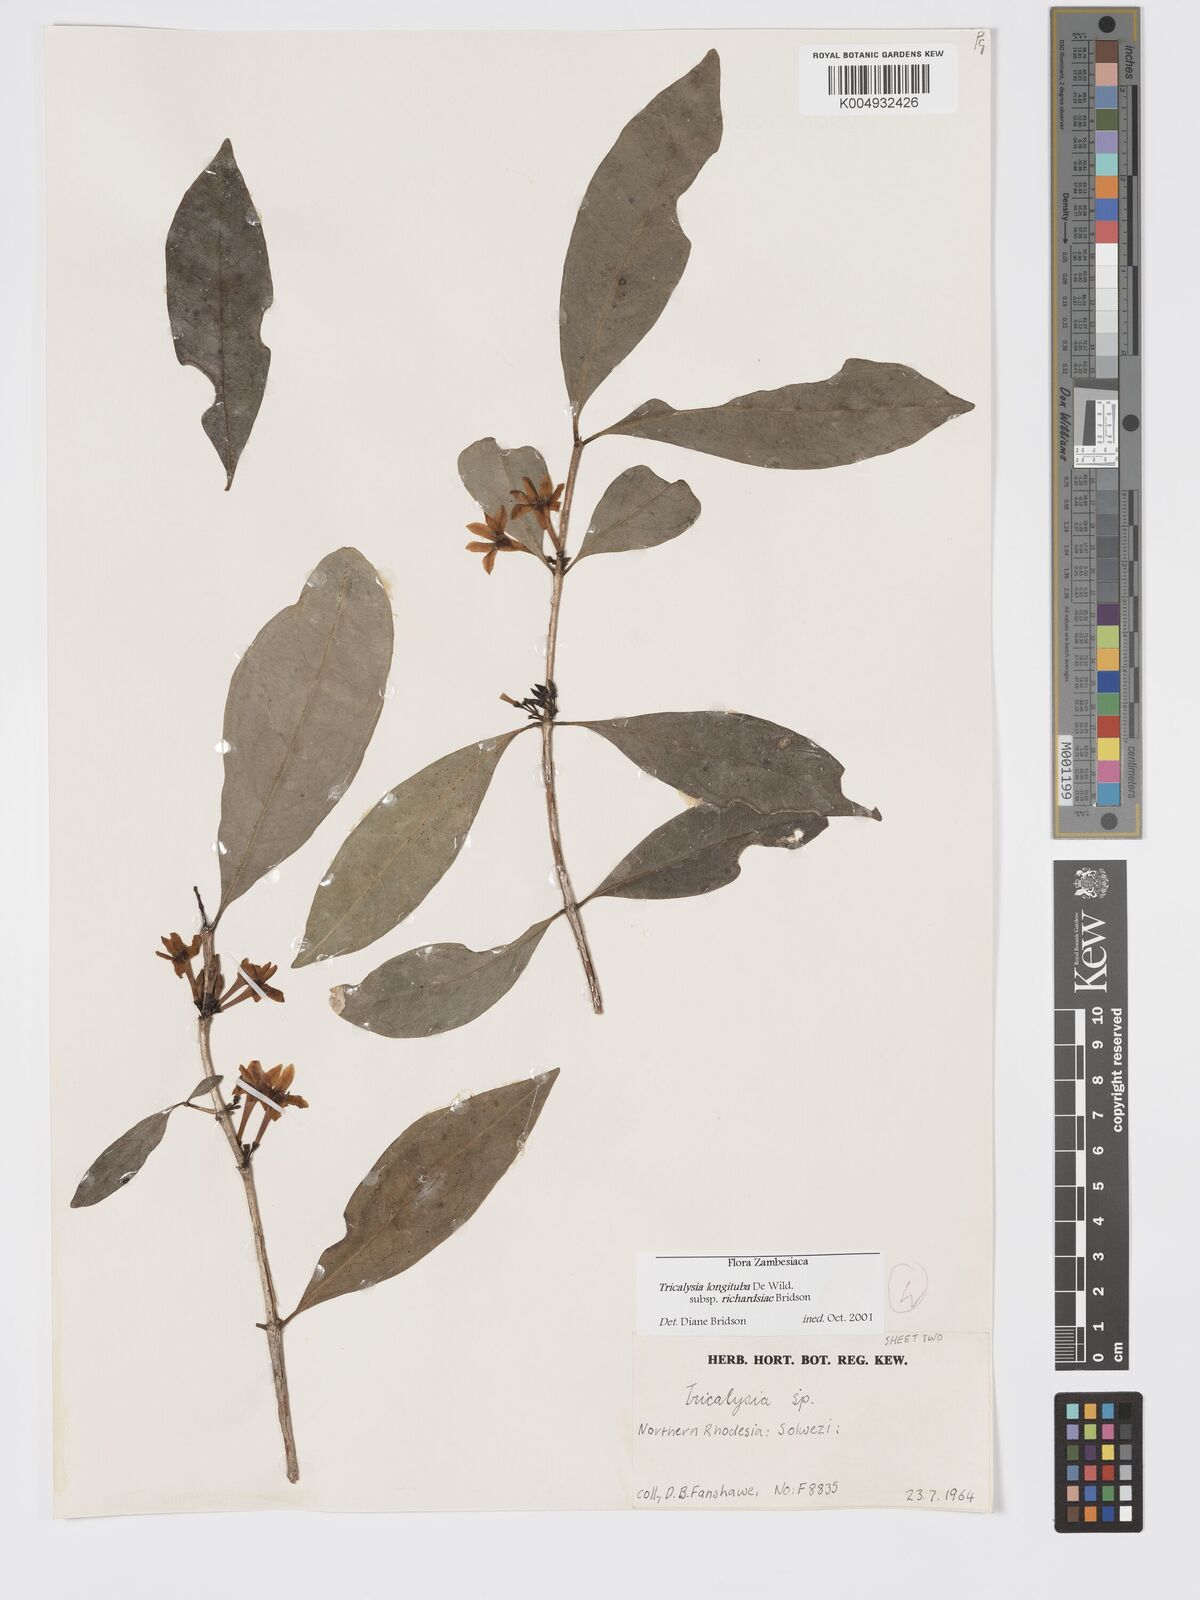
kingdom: Plantae
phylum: Tracheophyta
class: Magnoliopsida
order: Gentianales
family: Rubiaceae
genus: Tricalysia
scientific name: Tricalysia
